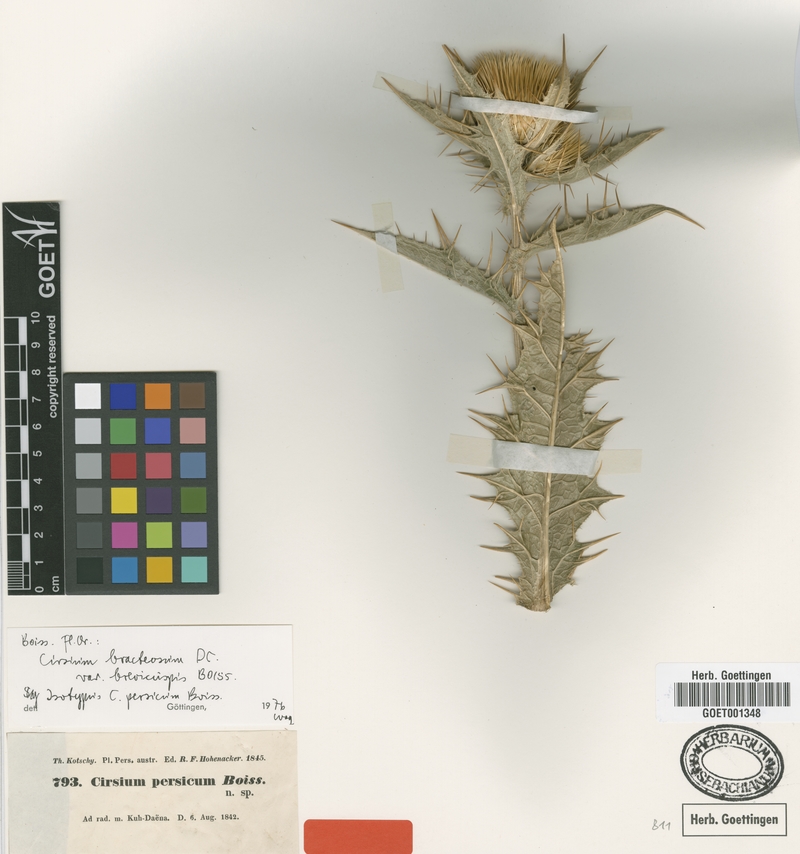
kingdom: Plantae
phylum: Tracheophyta
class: Magnoliopsida
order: Asterales
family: Asteraceae
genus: Lophiolepis
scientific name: Lophiolepis bracteosa
